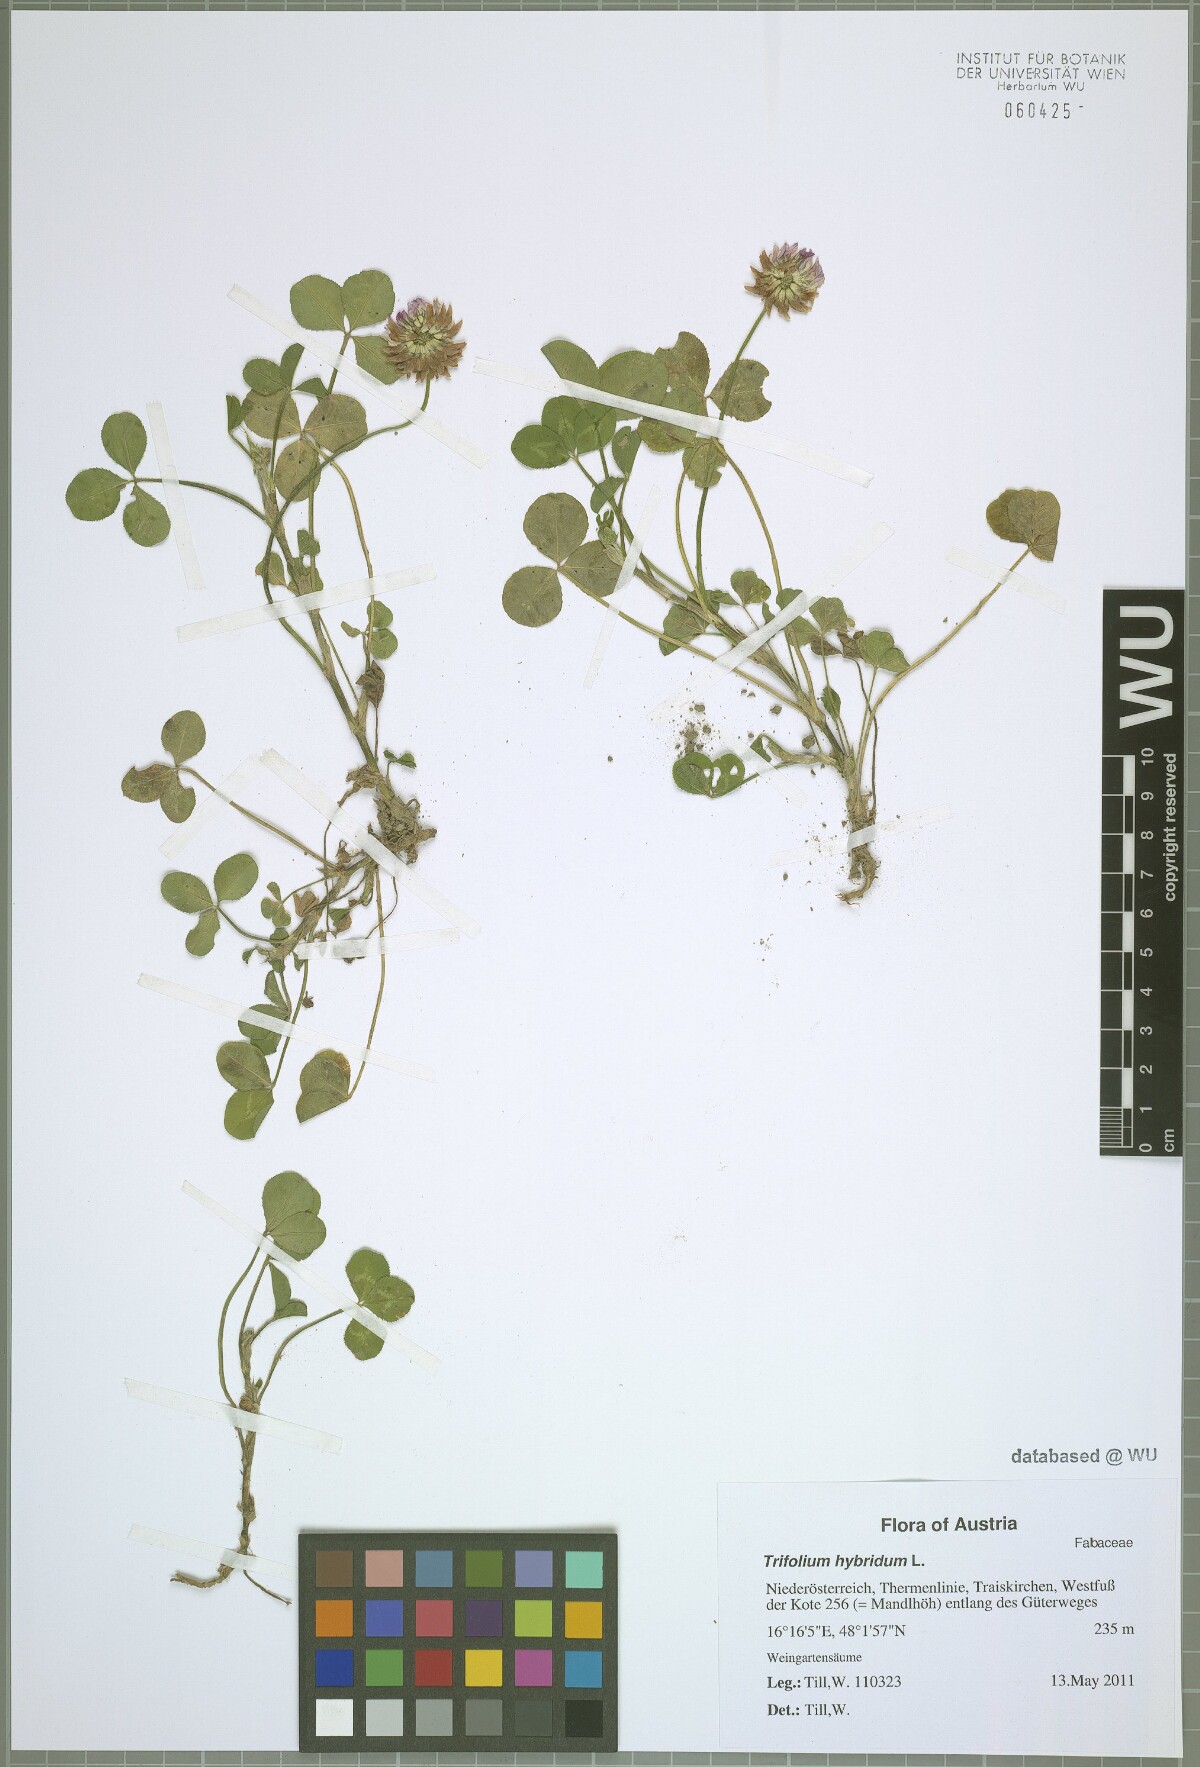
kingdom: Plantae
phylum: Tracheophyta
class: Magnoliopsida
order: Fabales
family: Fabaceae
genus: Trifolium
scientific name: Trifolium hybridum
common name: Alsike clover
